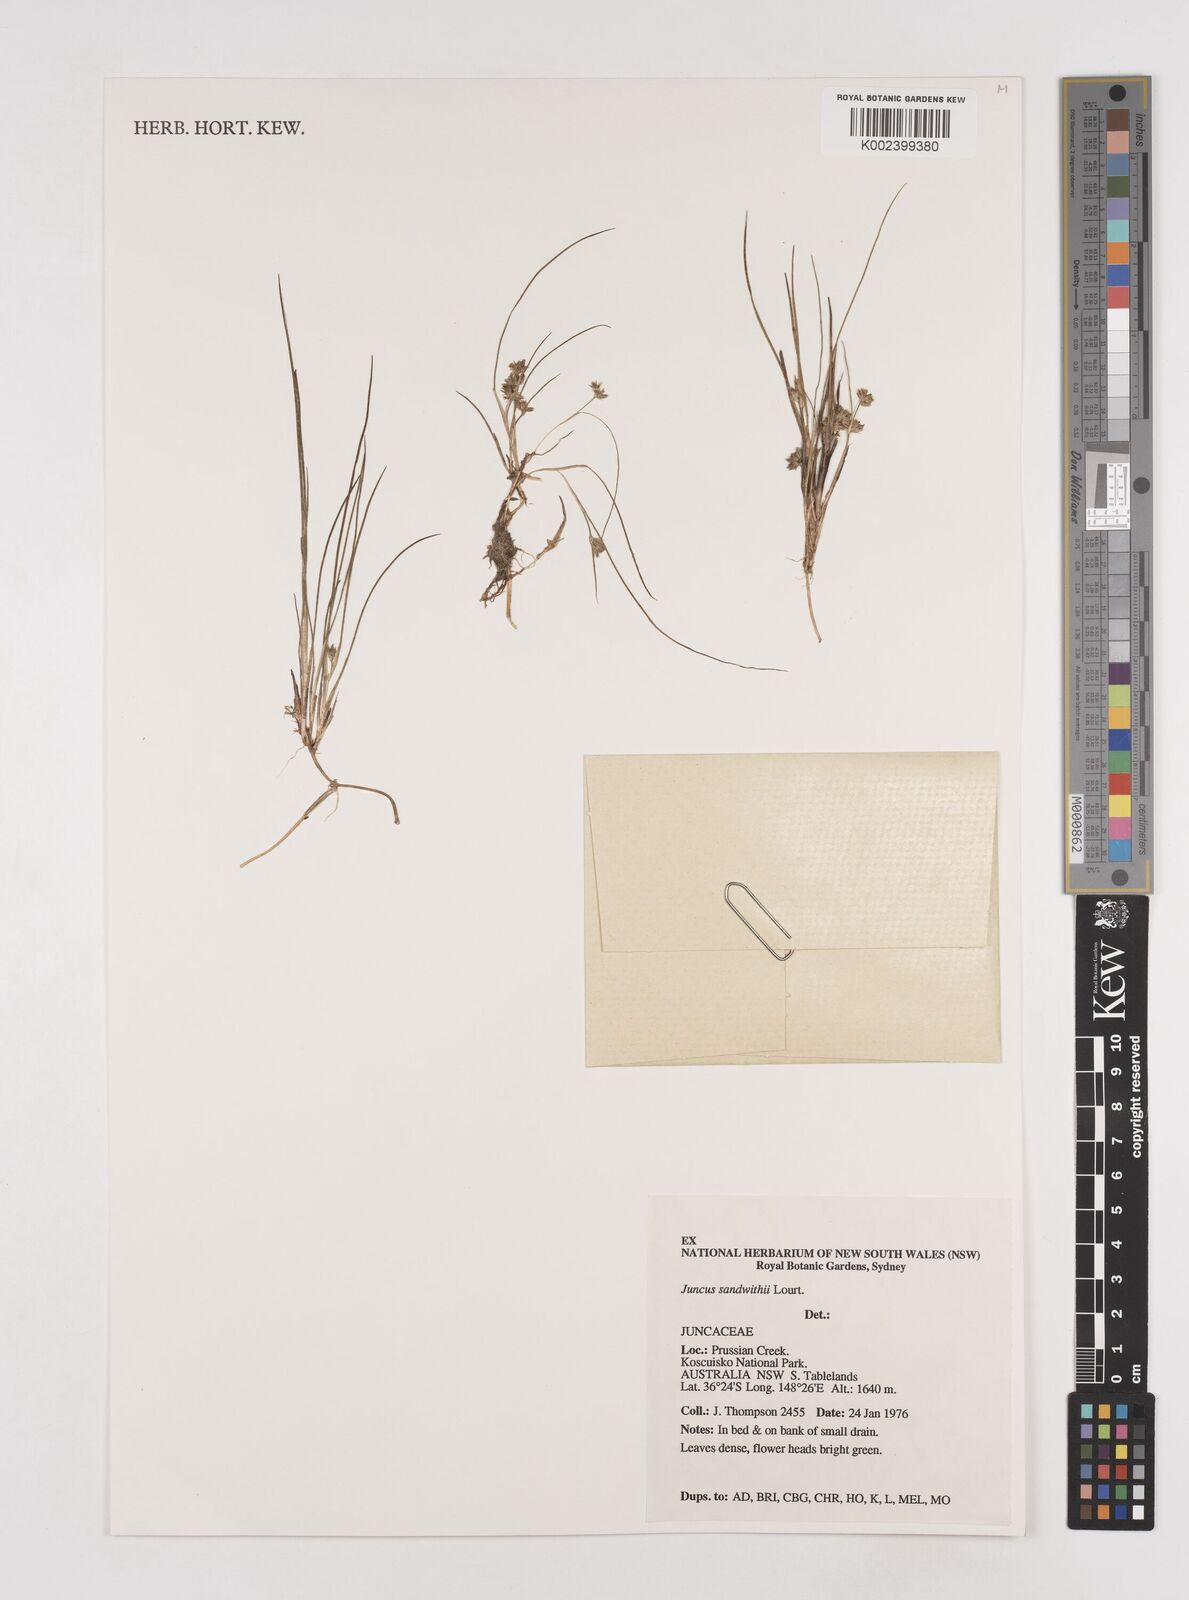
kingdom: Plantae
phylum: Tracheophyta
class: Liliopsida
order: Poales
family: Juncaceae
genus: Juncus
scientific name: Juncus sandwithii
